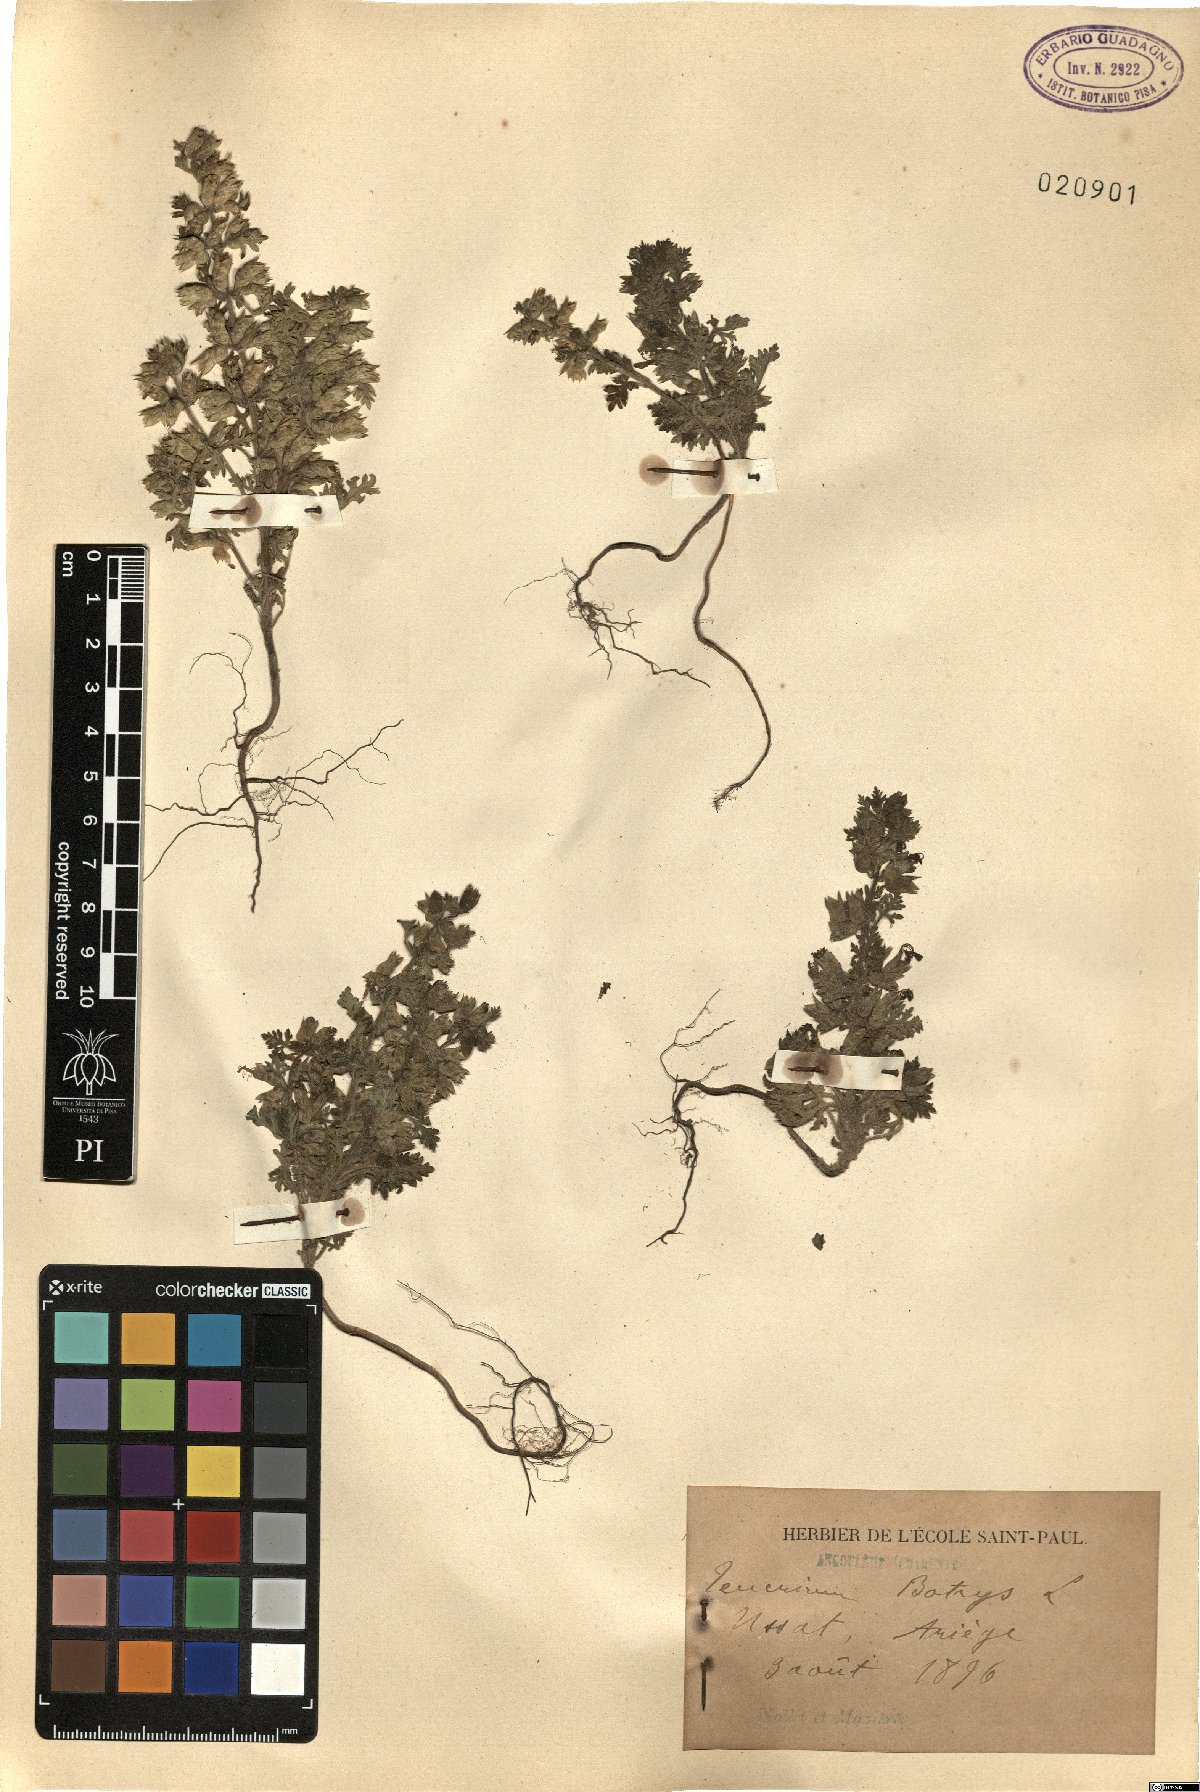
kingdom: Plantae
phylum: Tracheophyta
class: Magnoliopsida
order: Lamiales
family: Lamiaceae
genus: Teucrium
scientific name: Teucrium botrys
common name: Cut-leaved germander
